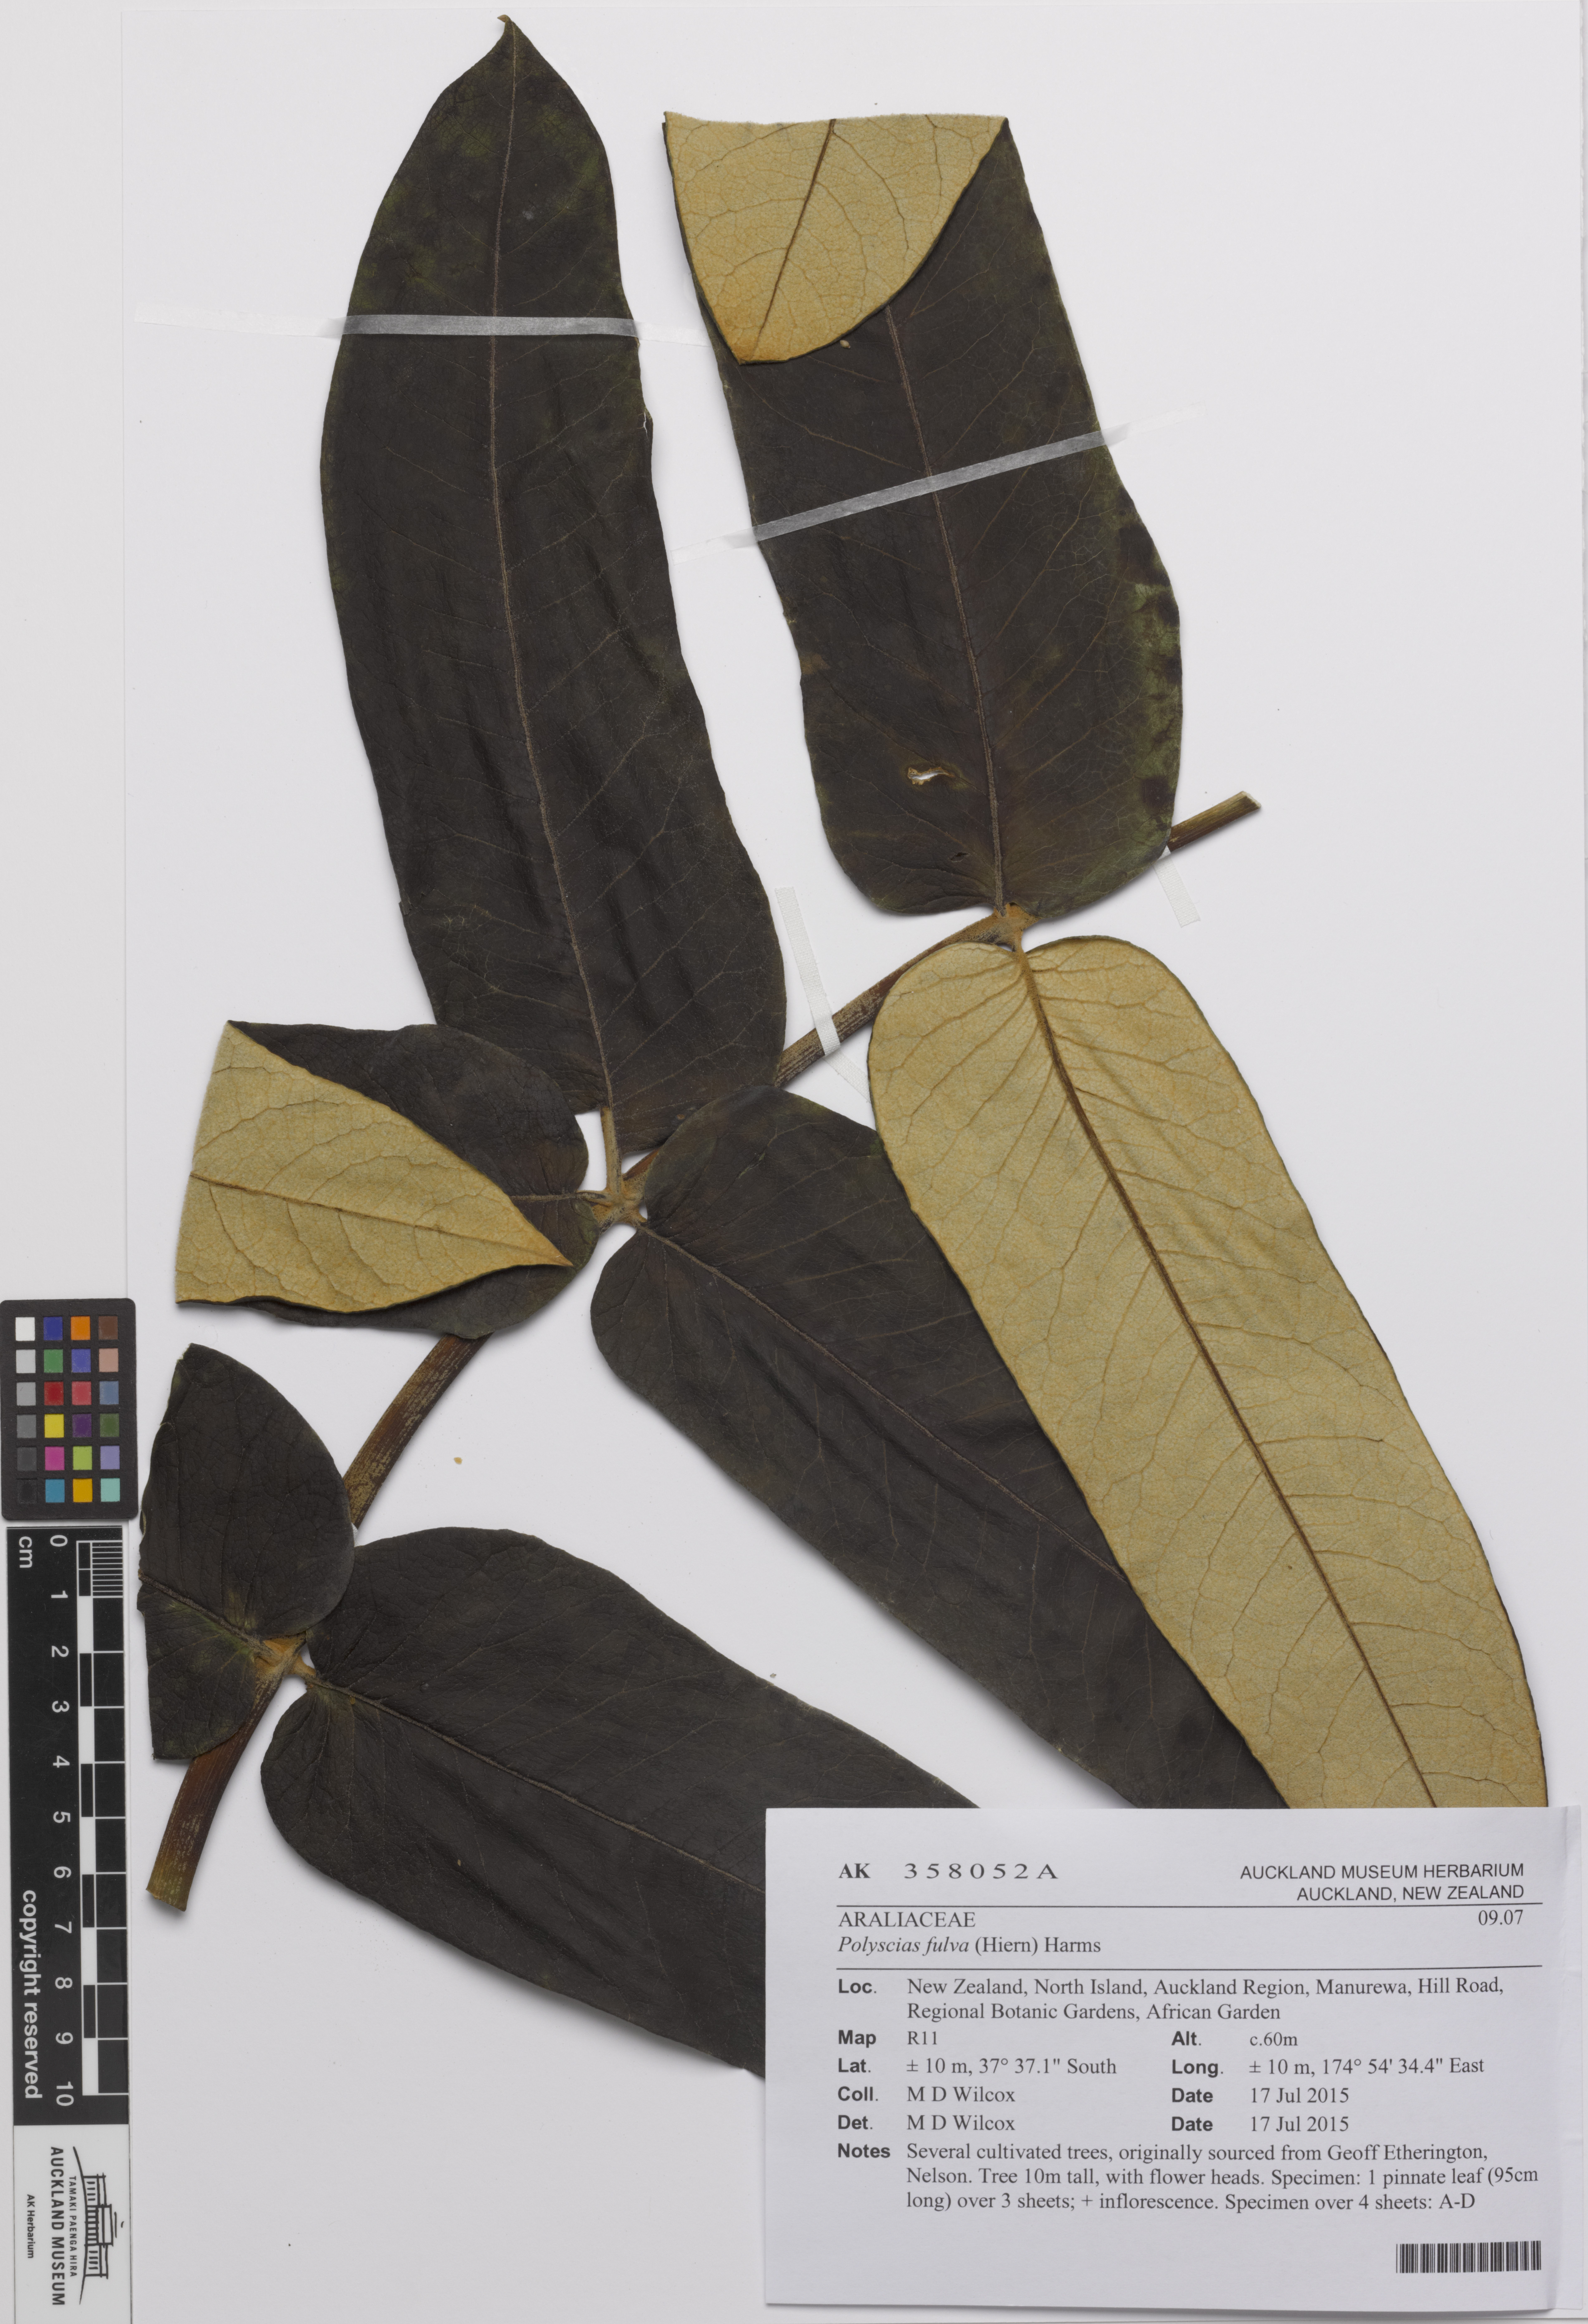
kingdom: Plantae
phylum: Tracheophyta
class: Magnoliopsida
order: Apiales
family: Araliaceae
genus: Polyscias
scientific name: Polyscias fulva
